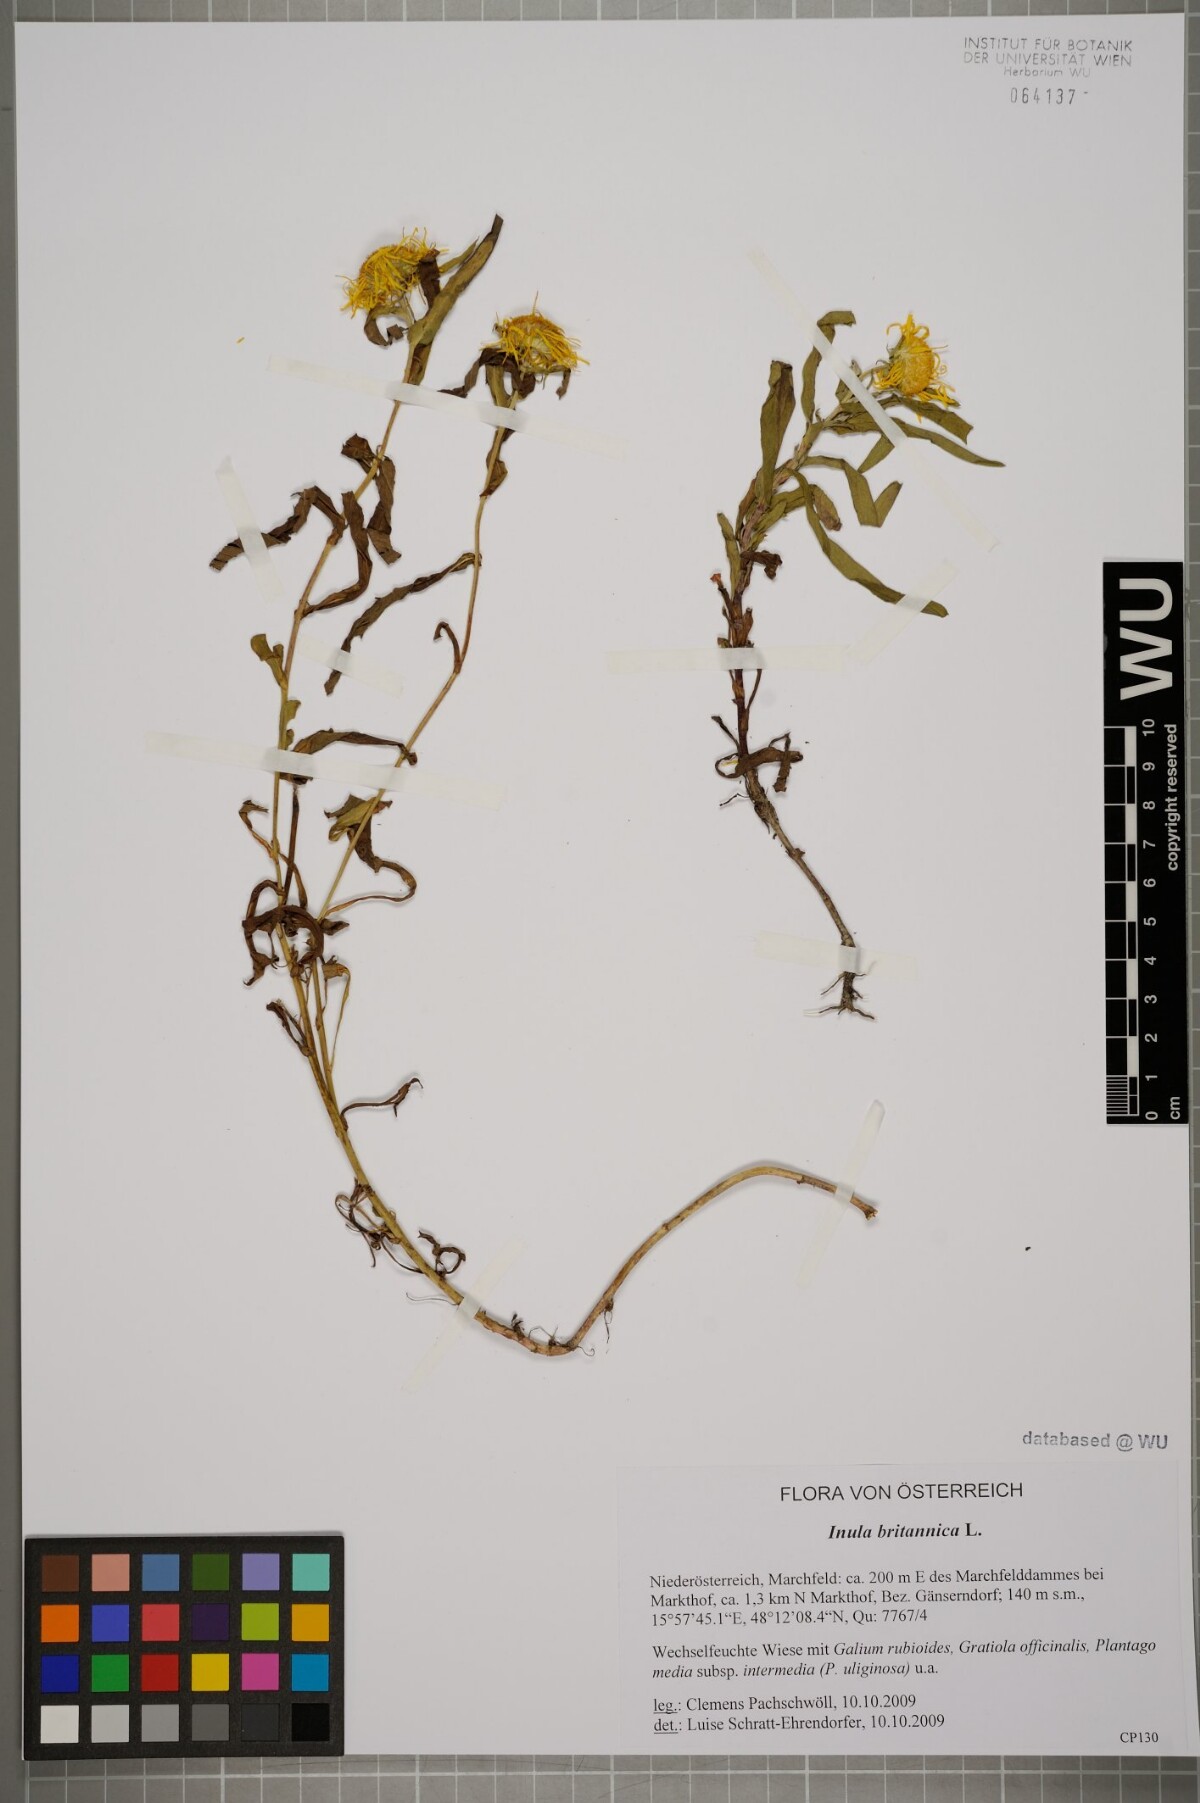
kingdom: Plantae
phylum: Tracheophyta
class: Magnoliopsida
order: Asterales
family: Asteraceae
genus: Pentanema
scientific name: Pentanema britannicum
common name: British elecampane
